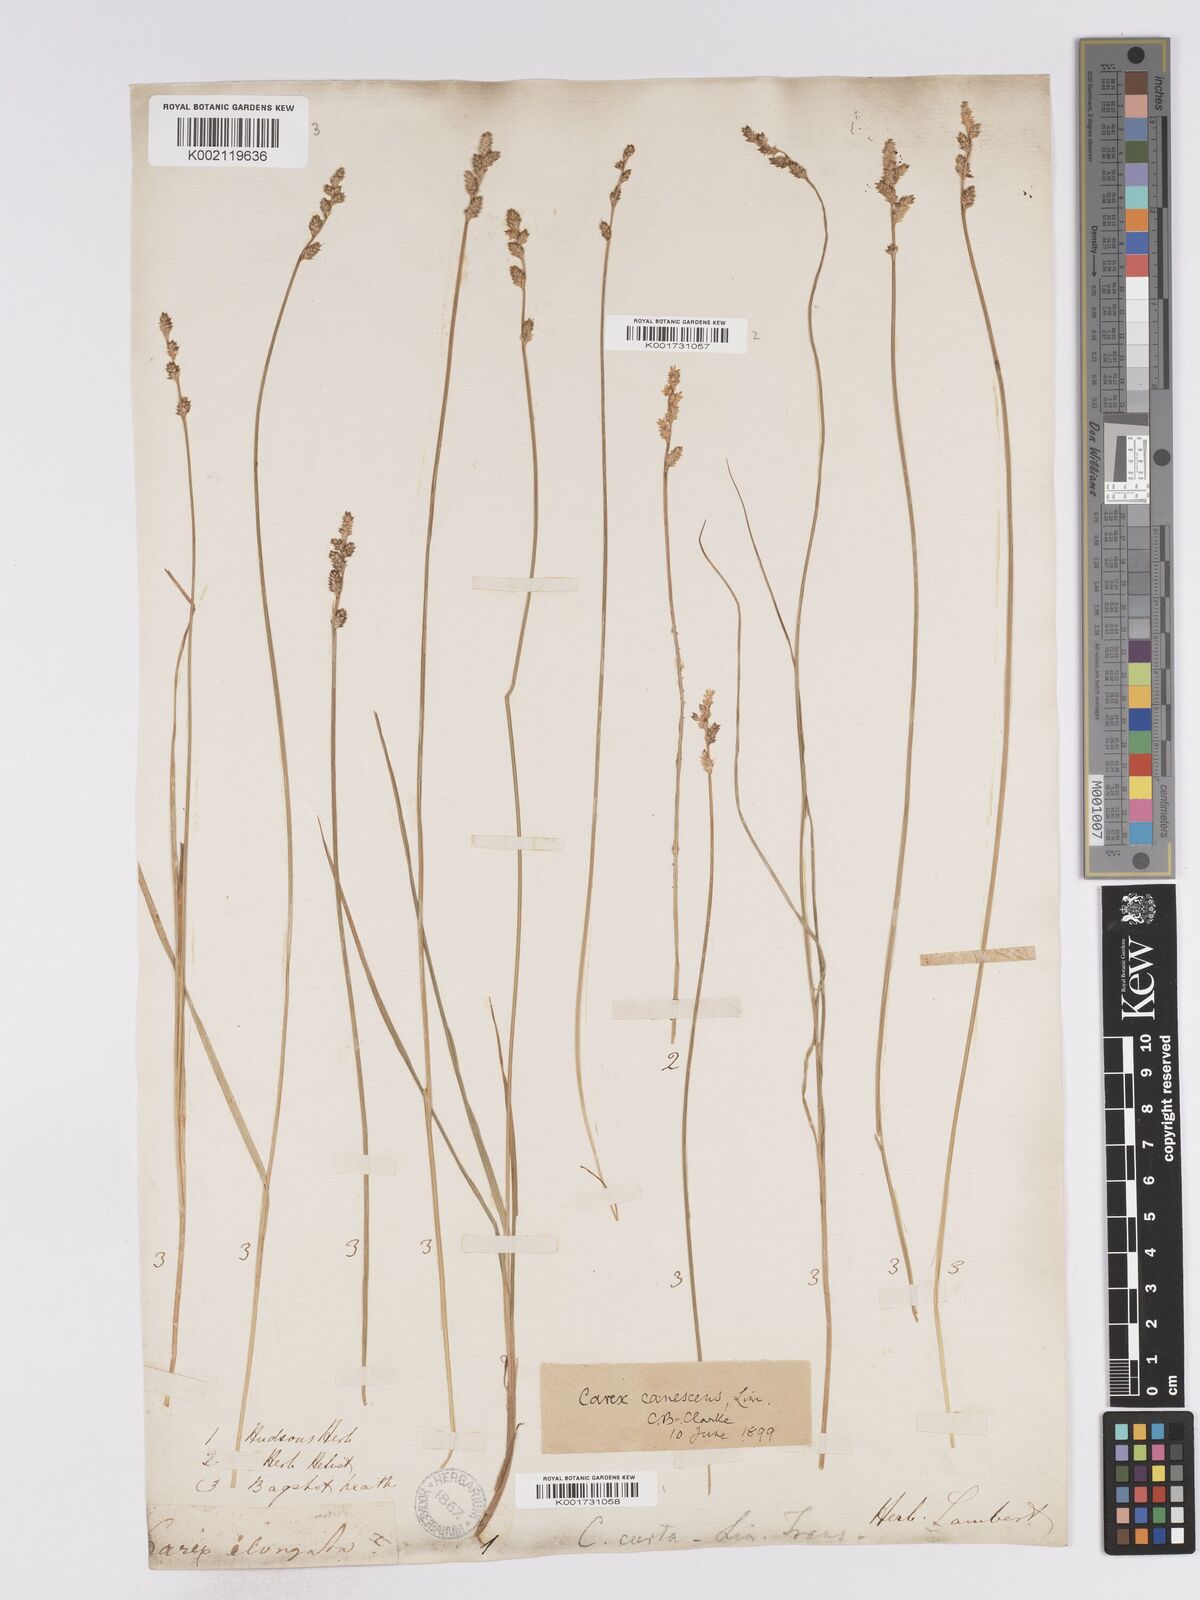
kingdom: Plantae
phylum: Tracheophyta
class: Liliopsida
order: Poales
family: Cyperaceae
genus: Carex
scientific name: Carex curta
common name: White sedge
